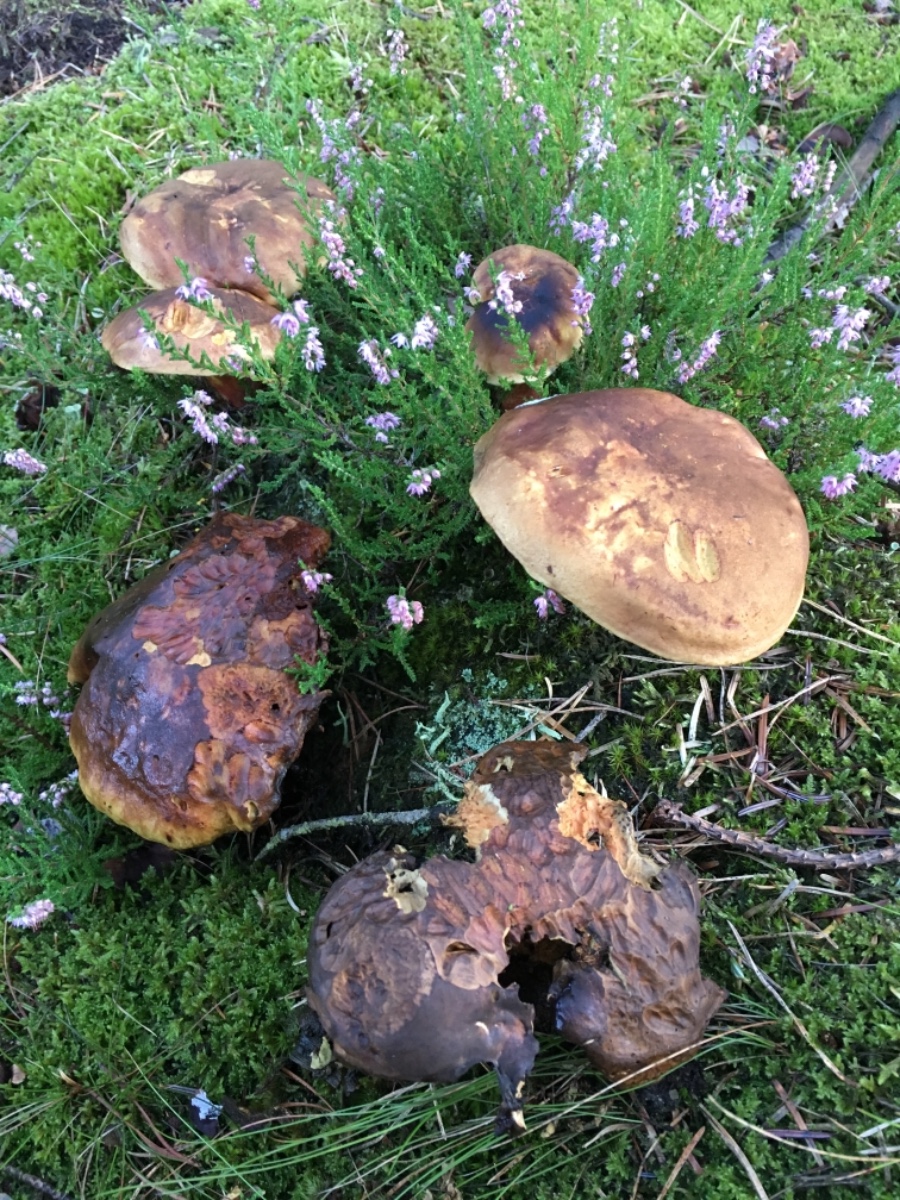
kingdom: Fungi
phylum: Basidiomycota
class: Agaricomycetes
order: Boletales
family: Boletaceae
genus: Neoboletus
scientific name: Neoboletus erythropus
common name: punktstokket indigorørhat
